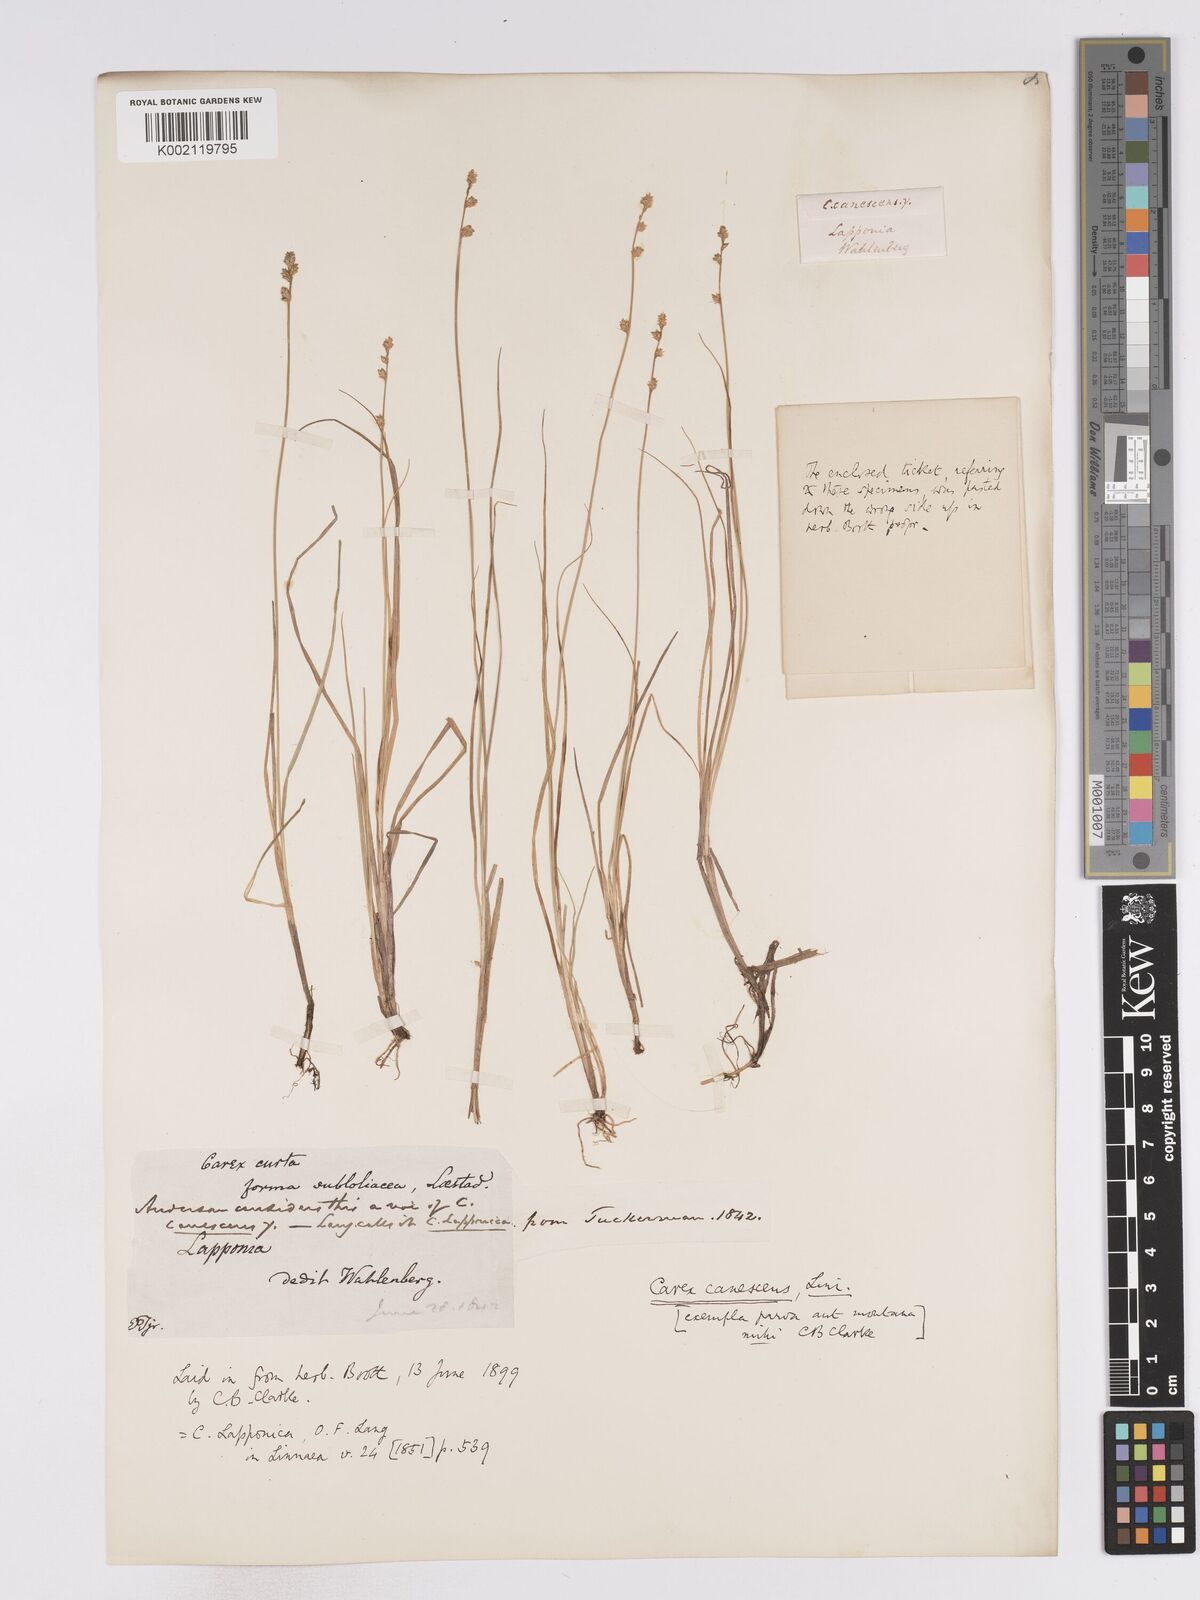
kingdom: Plantae
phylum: Tracheophyta
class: Liliopsida
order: Poales
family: Cyperaceae
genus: Carex
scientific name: Carex curta
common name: White sedge
